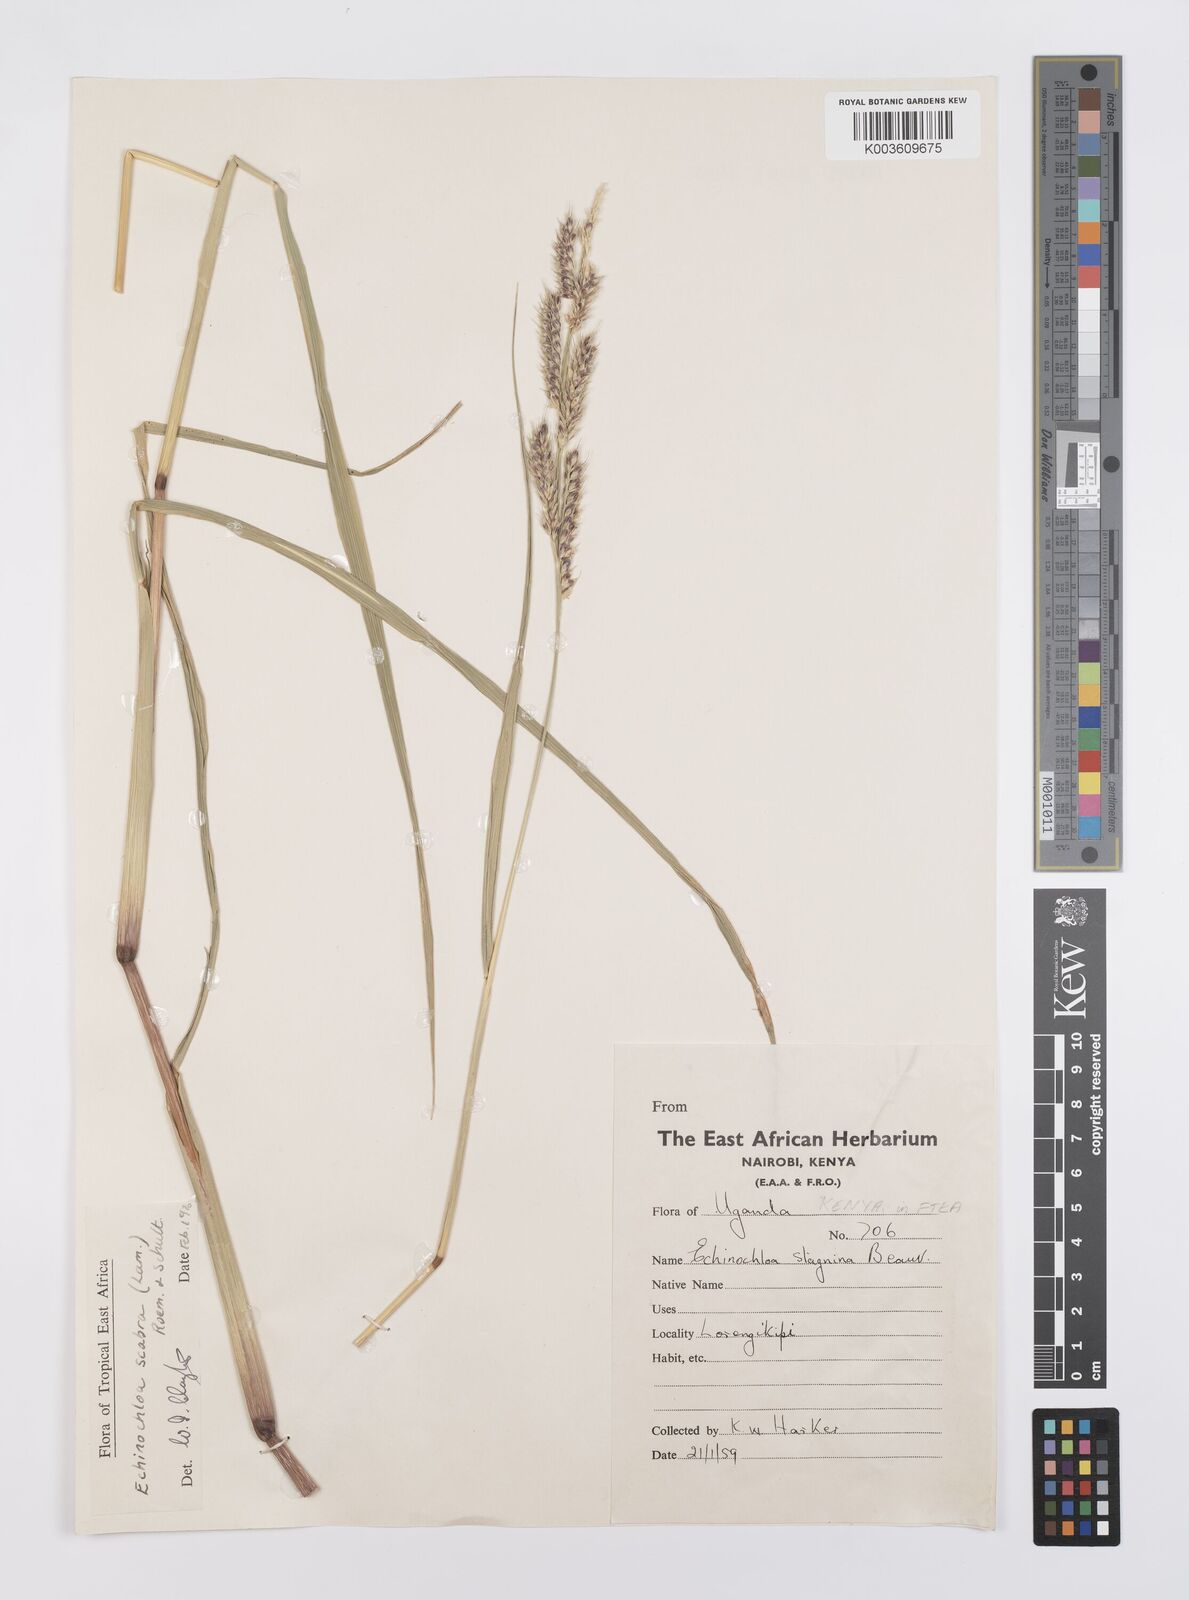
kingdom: Plantae
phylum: Tracheophyta
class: Liliopsida
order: Poales
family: Poaceae
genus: Echinochloa
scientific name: Echinochloa stagnina
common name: Burgu grass
